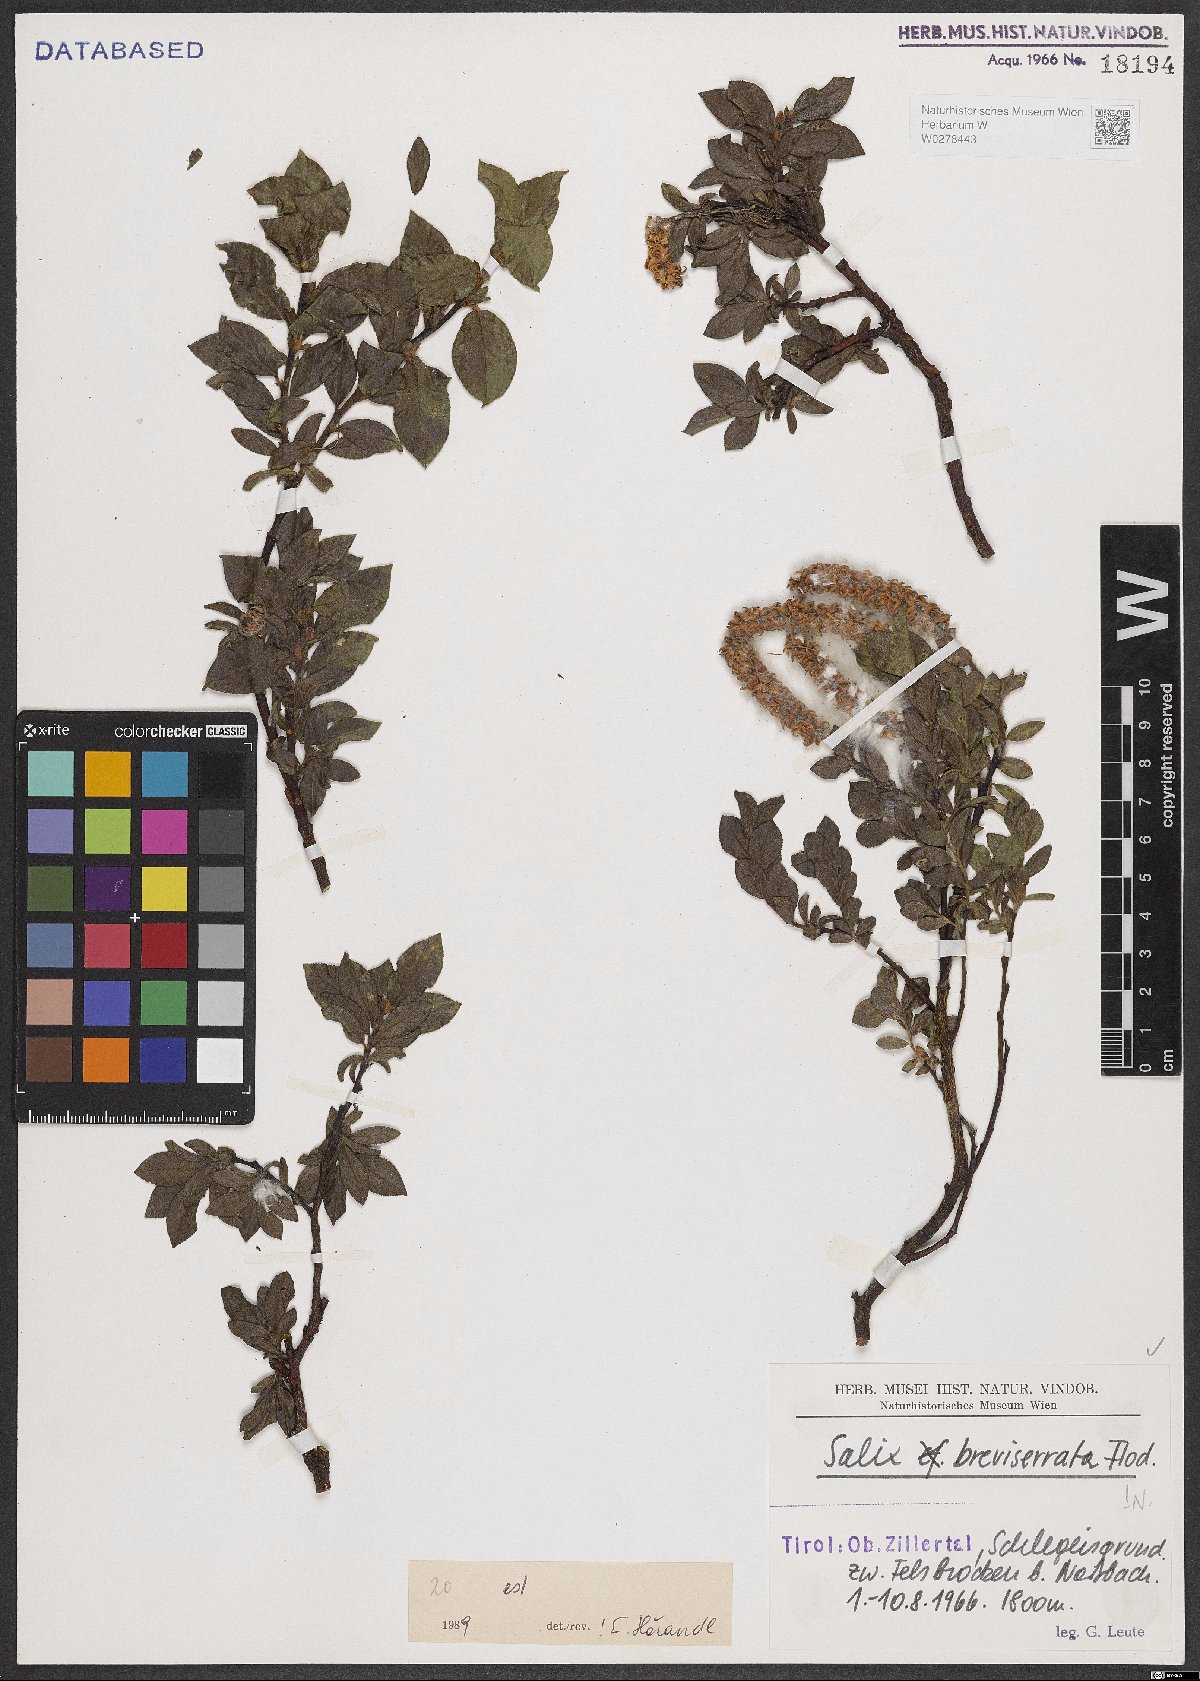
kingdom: Plantae
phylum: Tracheophyta
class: Magnoliopsida
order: Malpighiales
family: Salicaceae
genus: Salix
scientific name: Salix breviserrata
